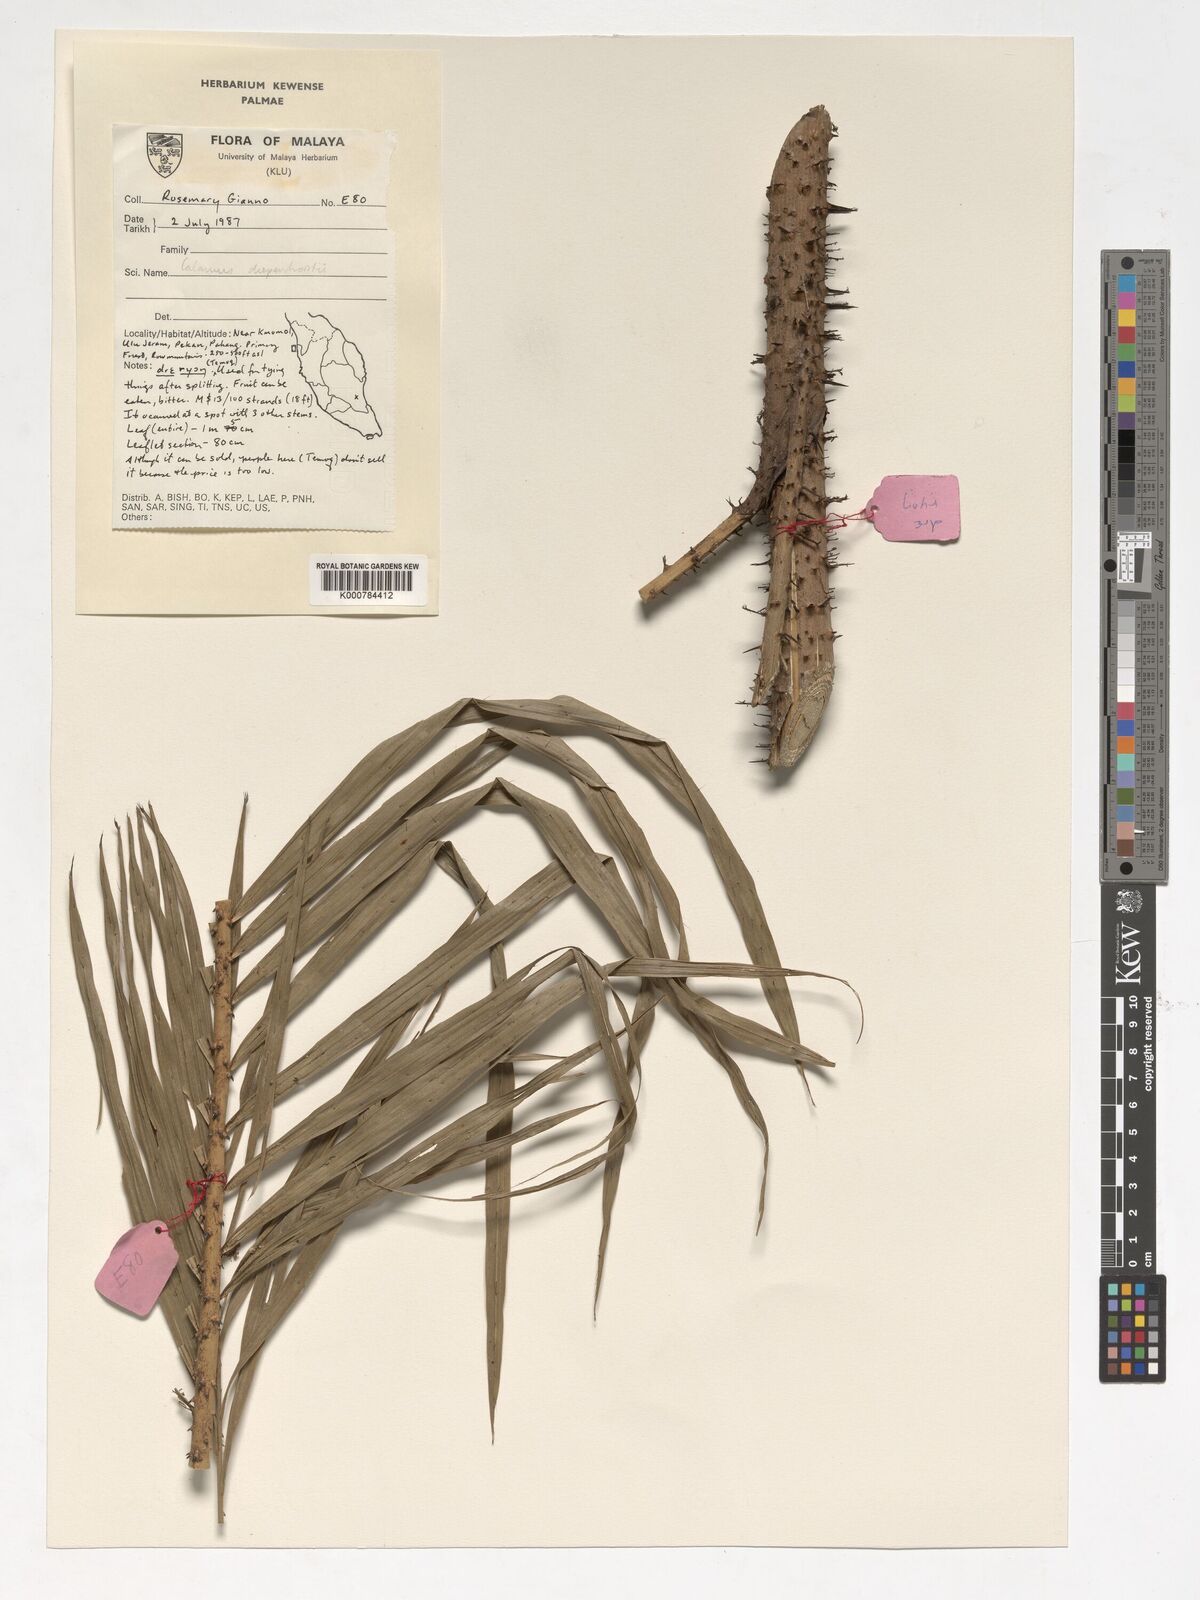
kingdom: Plantae
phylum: Tracheophyta
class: Liliopsida
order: Arecales
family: Arecaceae
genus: Calamus
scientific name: Calamus diepenhorstii
